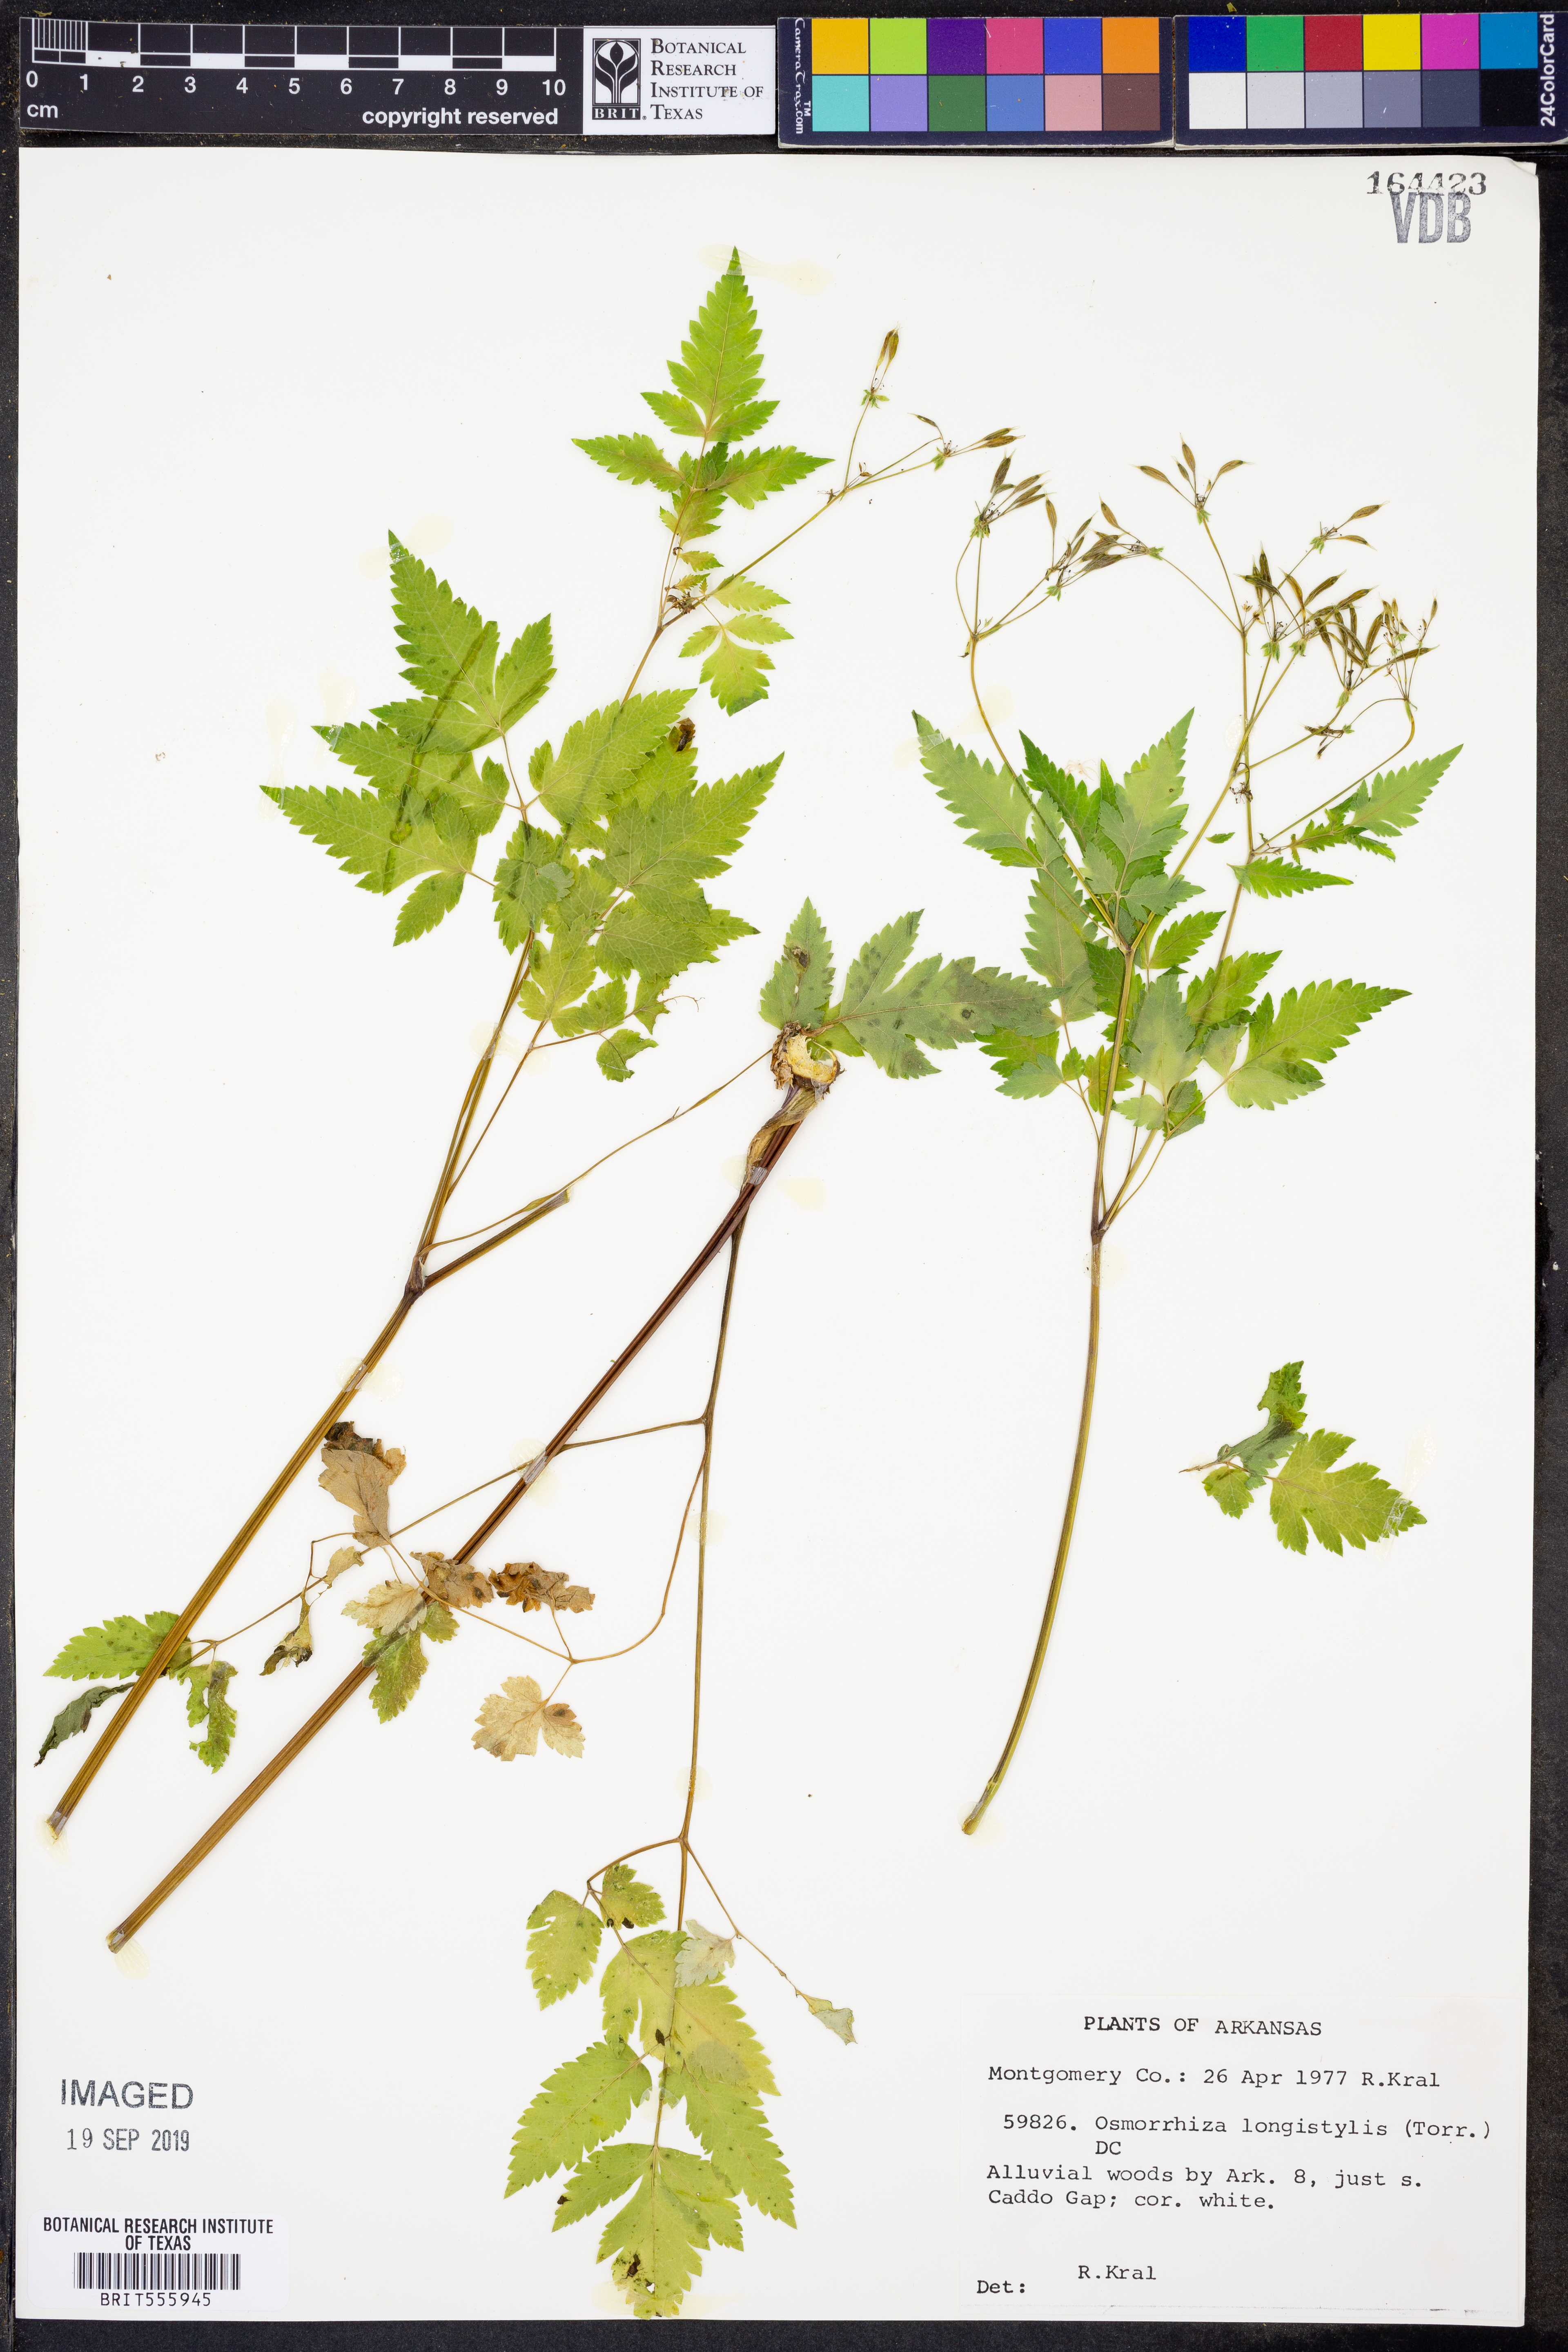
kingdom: Plantae
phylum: Tracheophyta
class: Magnoliopsida
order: Apiales
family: Apiaceae
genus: Osmorhiza
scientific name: Osmorhiza longistylis
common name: Smooth sweet cicely
